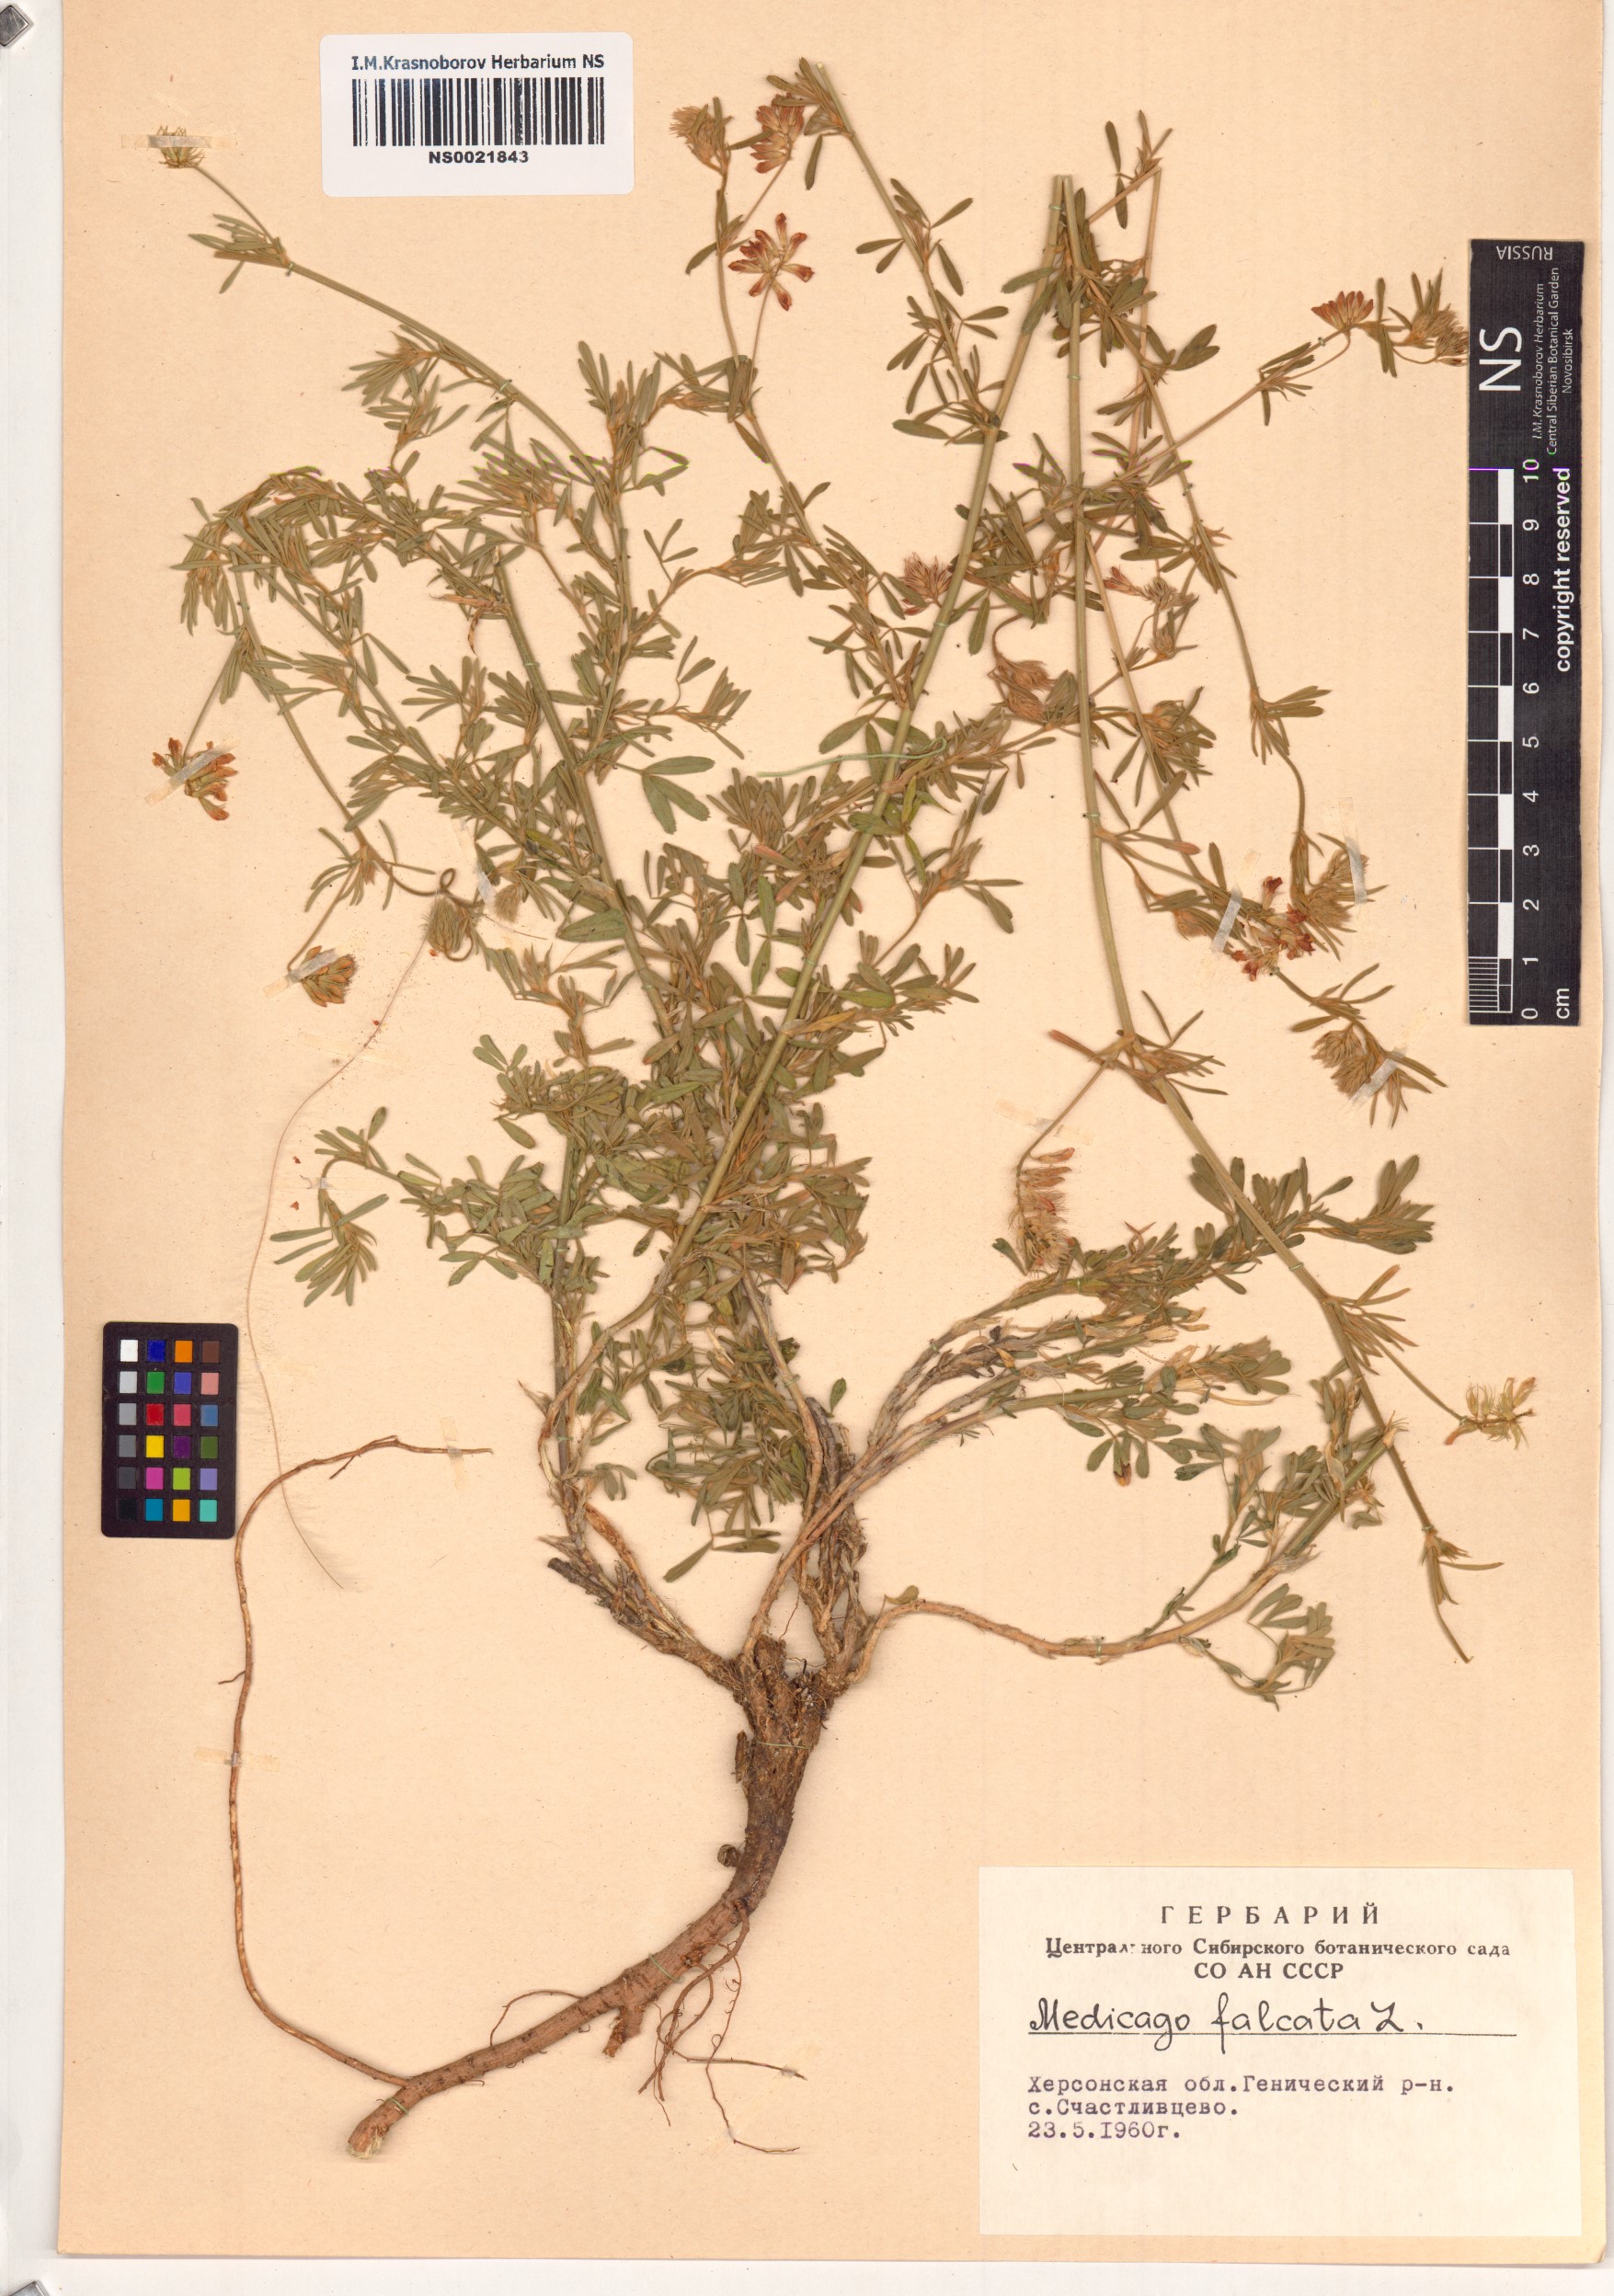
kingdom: Plantae
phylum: Tracheophyta
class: Magnoliopsida
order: Fabales
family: Fabaceae
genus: Medicago
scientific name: Medicago falcata
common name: Sickle medick
